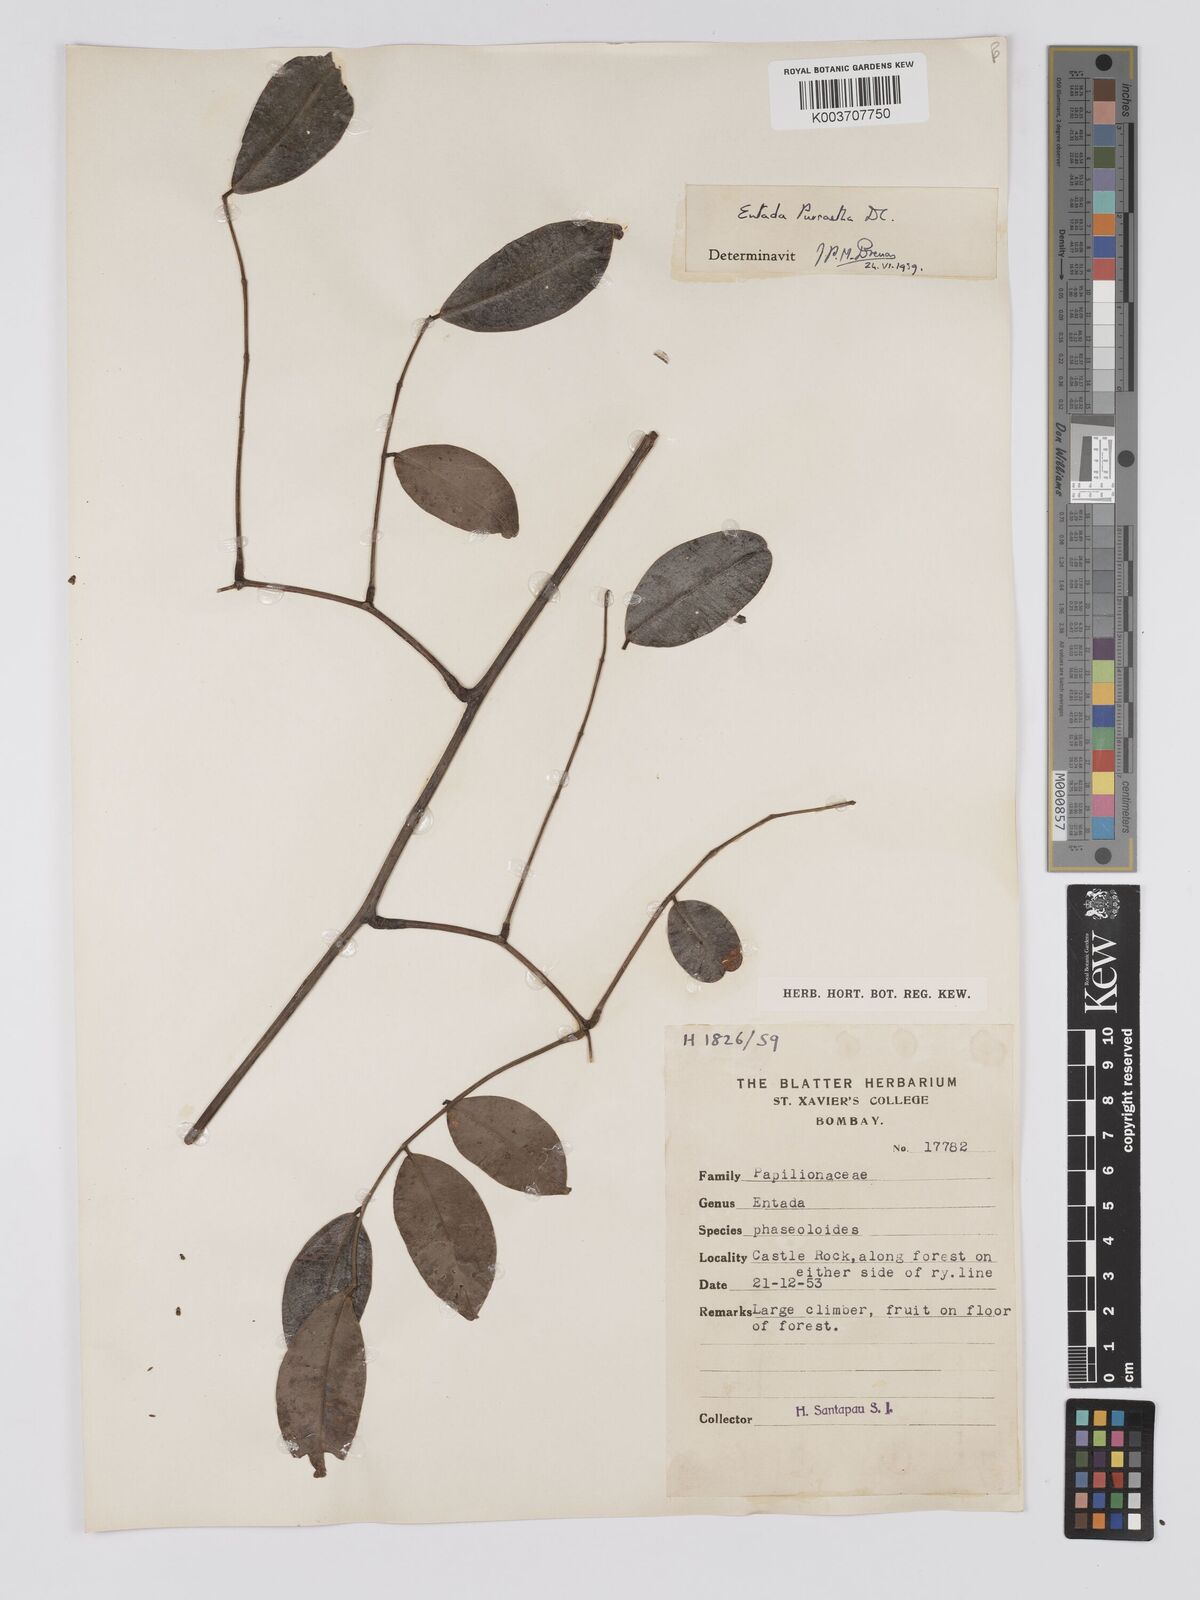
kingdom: Plantae
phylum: Tracheophyta
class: Magnoliopsida
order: Fabales
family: Fabaceae
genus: Entada
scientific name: Entada rheedei
